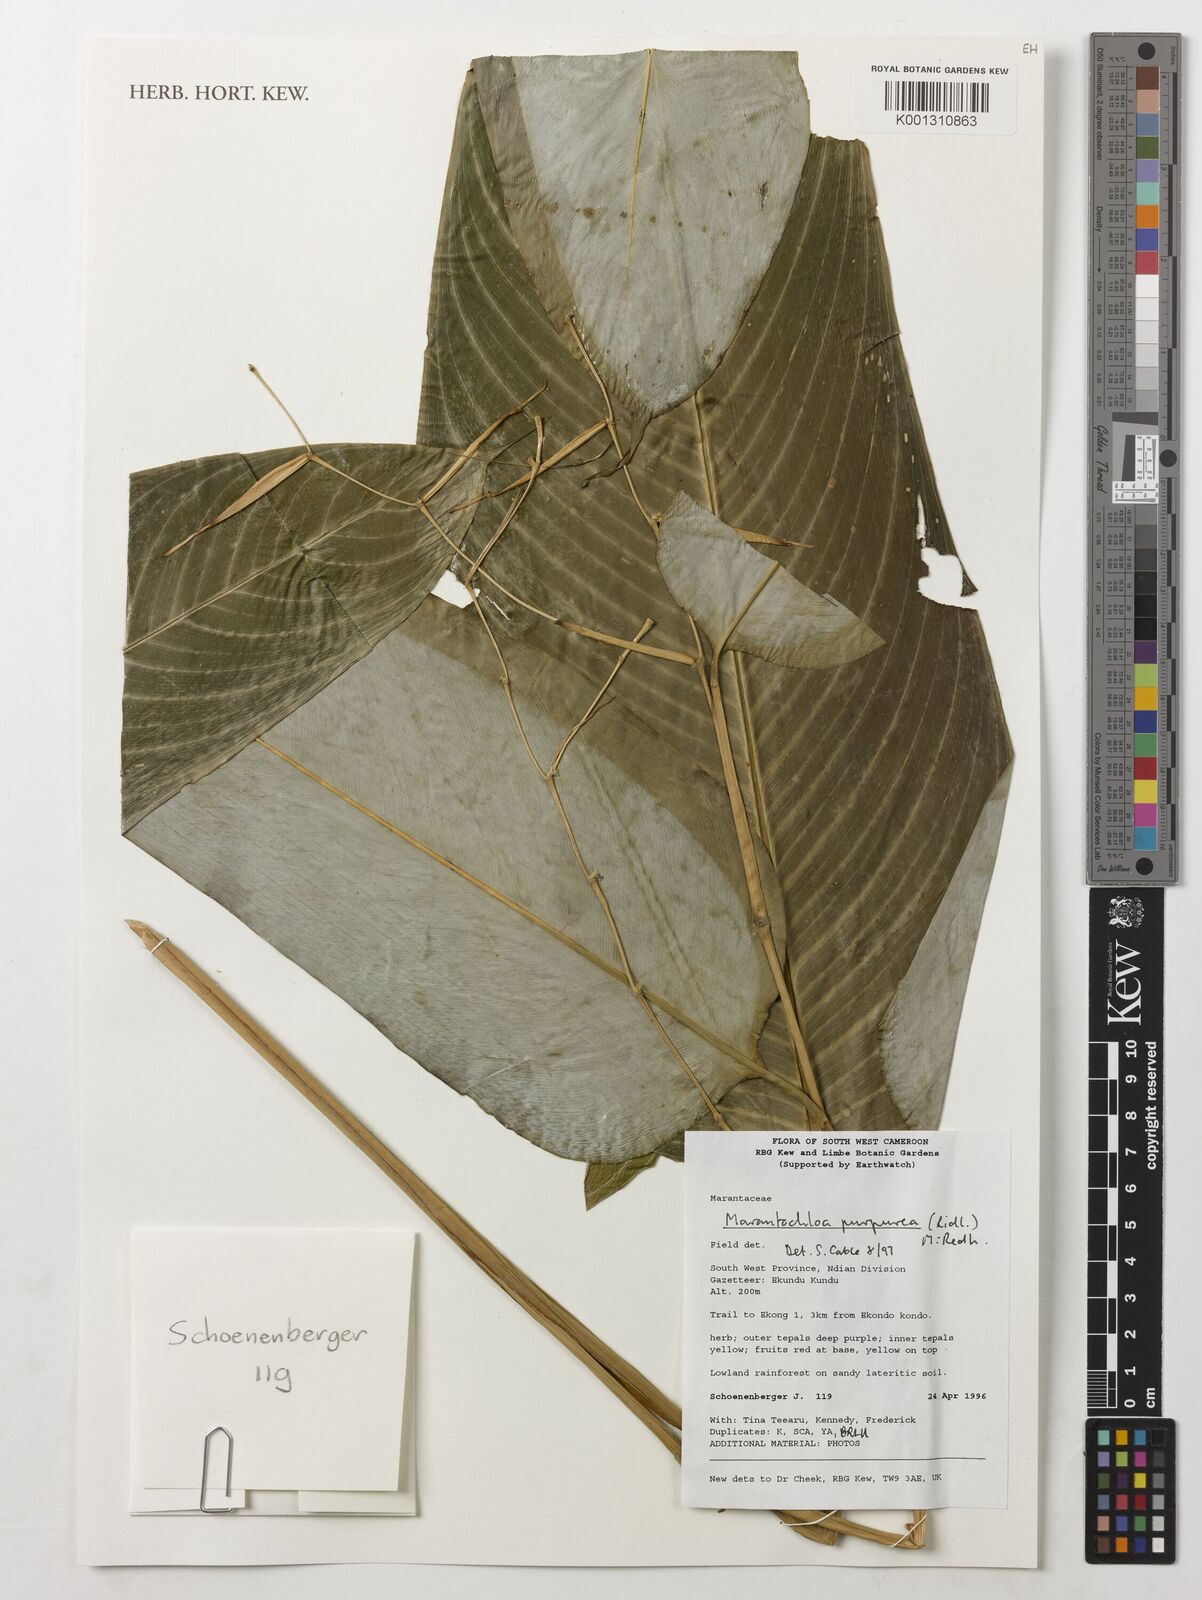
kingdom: Plantae
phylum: Tracheophyta
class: Liliopsida
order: Zingiberales
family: Marantaceae
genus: Marantochloa
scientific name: Marantochloa purpurea
